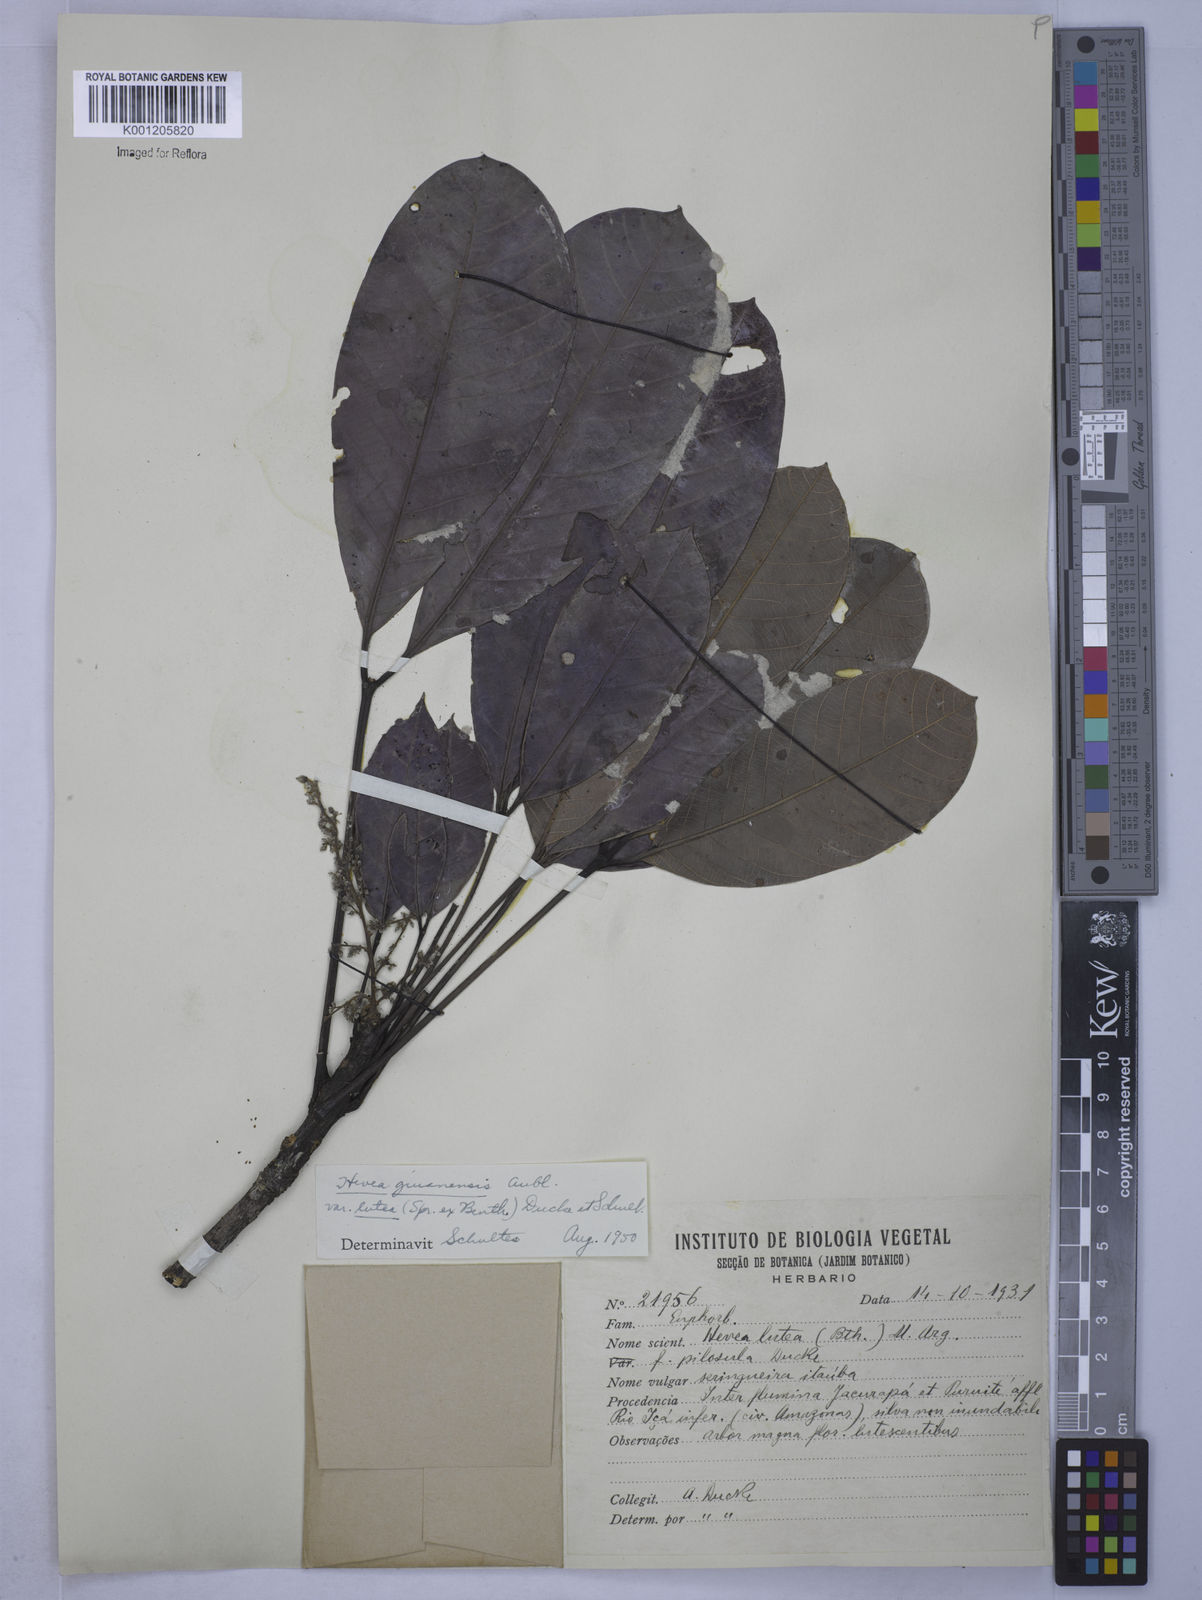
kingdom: Plantae
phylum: Tracheophyta
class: Magnoliopsida
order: Malpighiales
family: Euphorbiaceae
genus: Hevea
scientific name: Hevea guianensis
